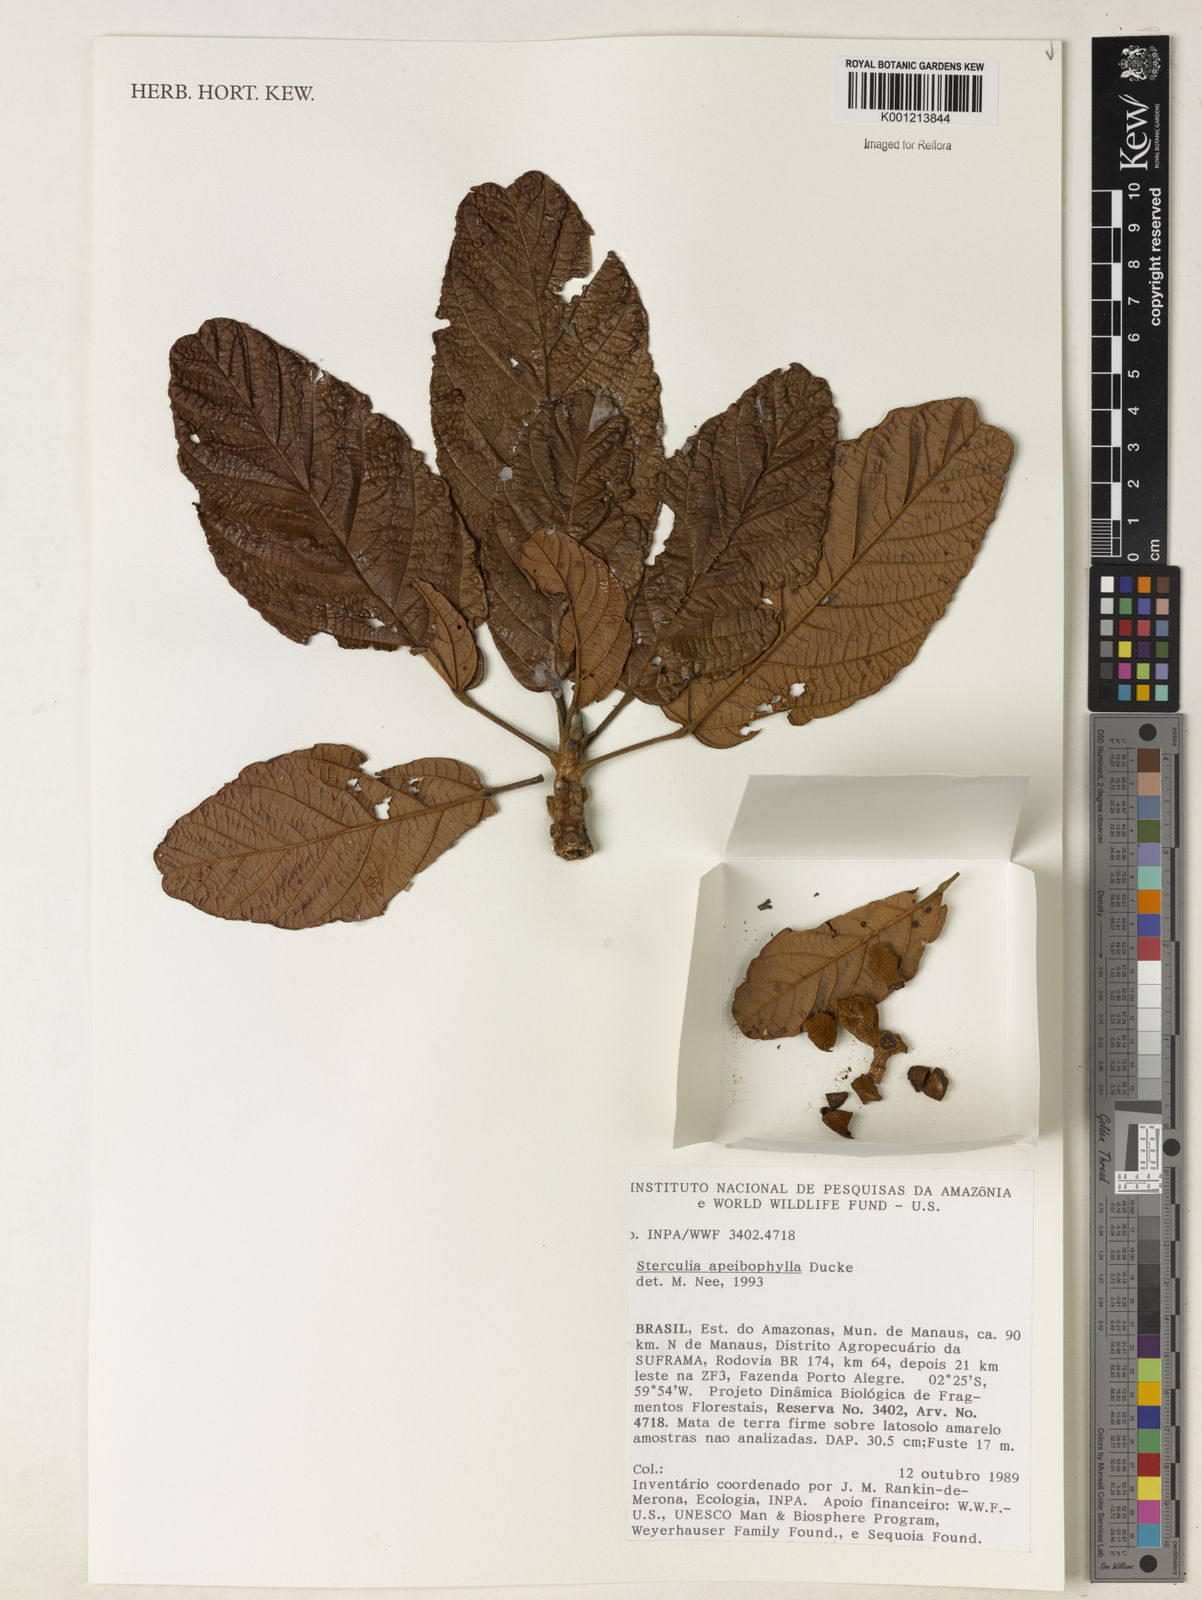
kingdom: Plantae
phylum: Tracheophyta
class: Magnoliopsida
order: Malvales
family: Malvaceae
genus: Sterculia
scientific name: Sterculia apeibophylla
